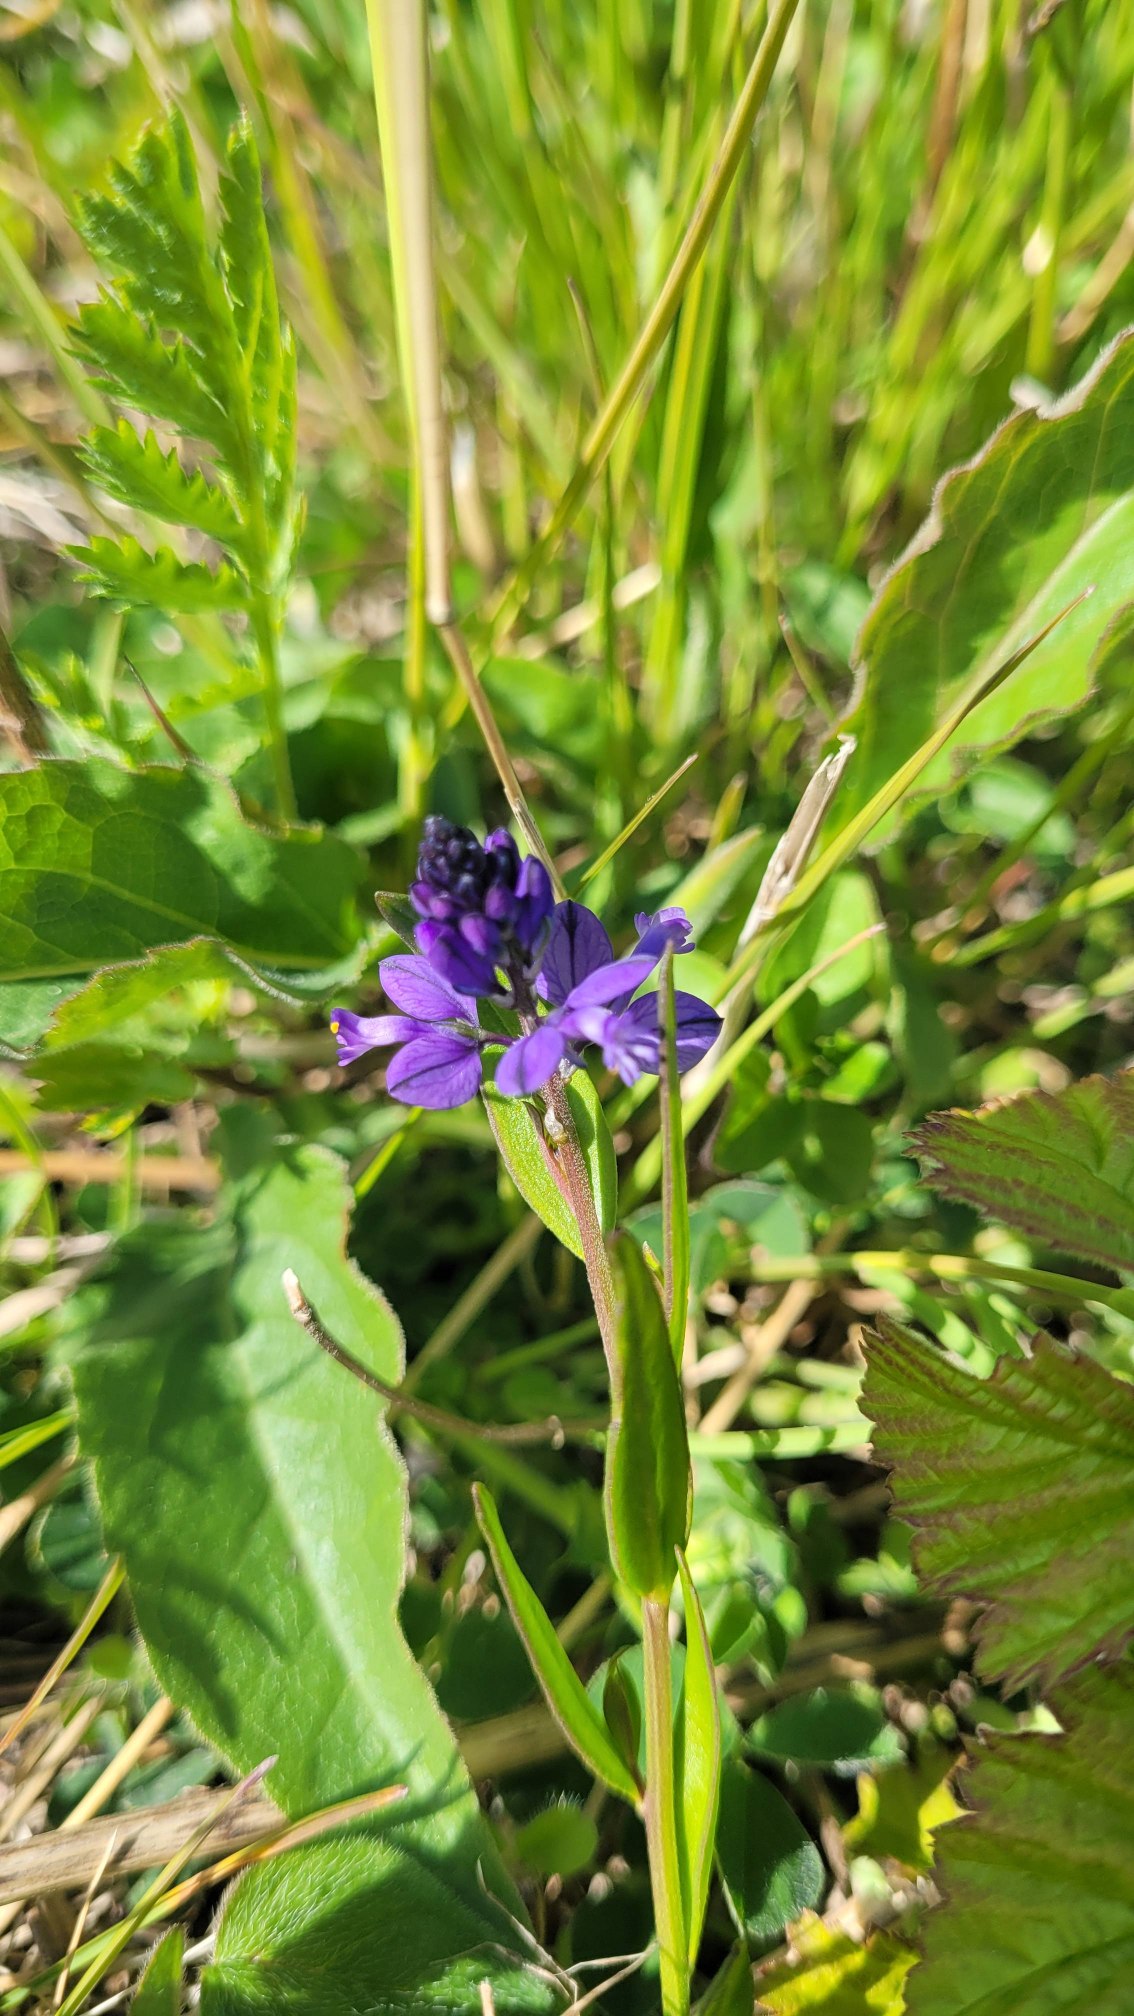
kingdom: Plantae
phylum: Tracheophyta
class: Magnoliopsida
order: Fabales
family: Polygalaceae
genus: Polygala
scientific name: Polygala vulgaris
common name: Almindelig mælkeurt
